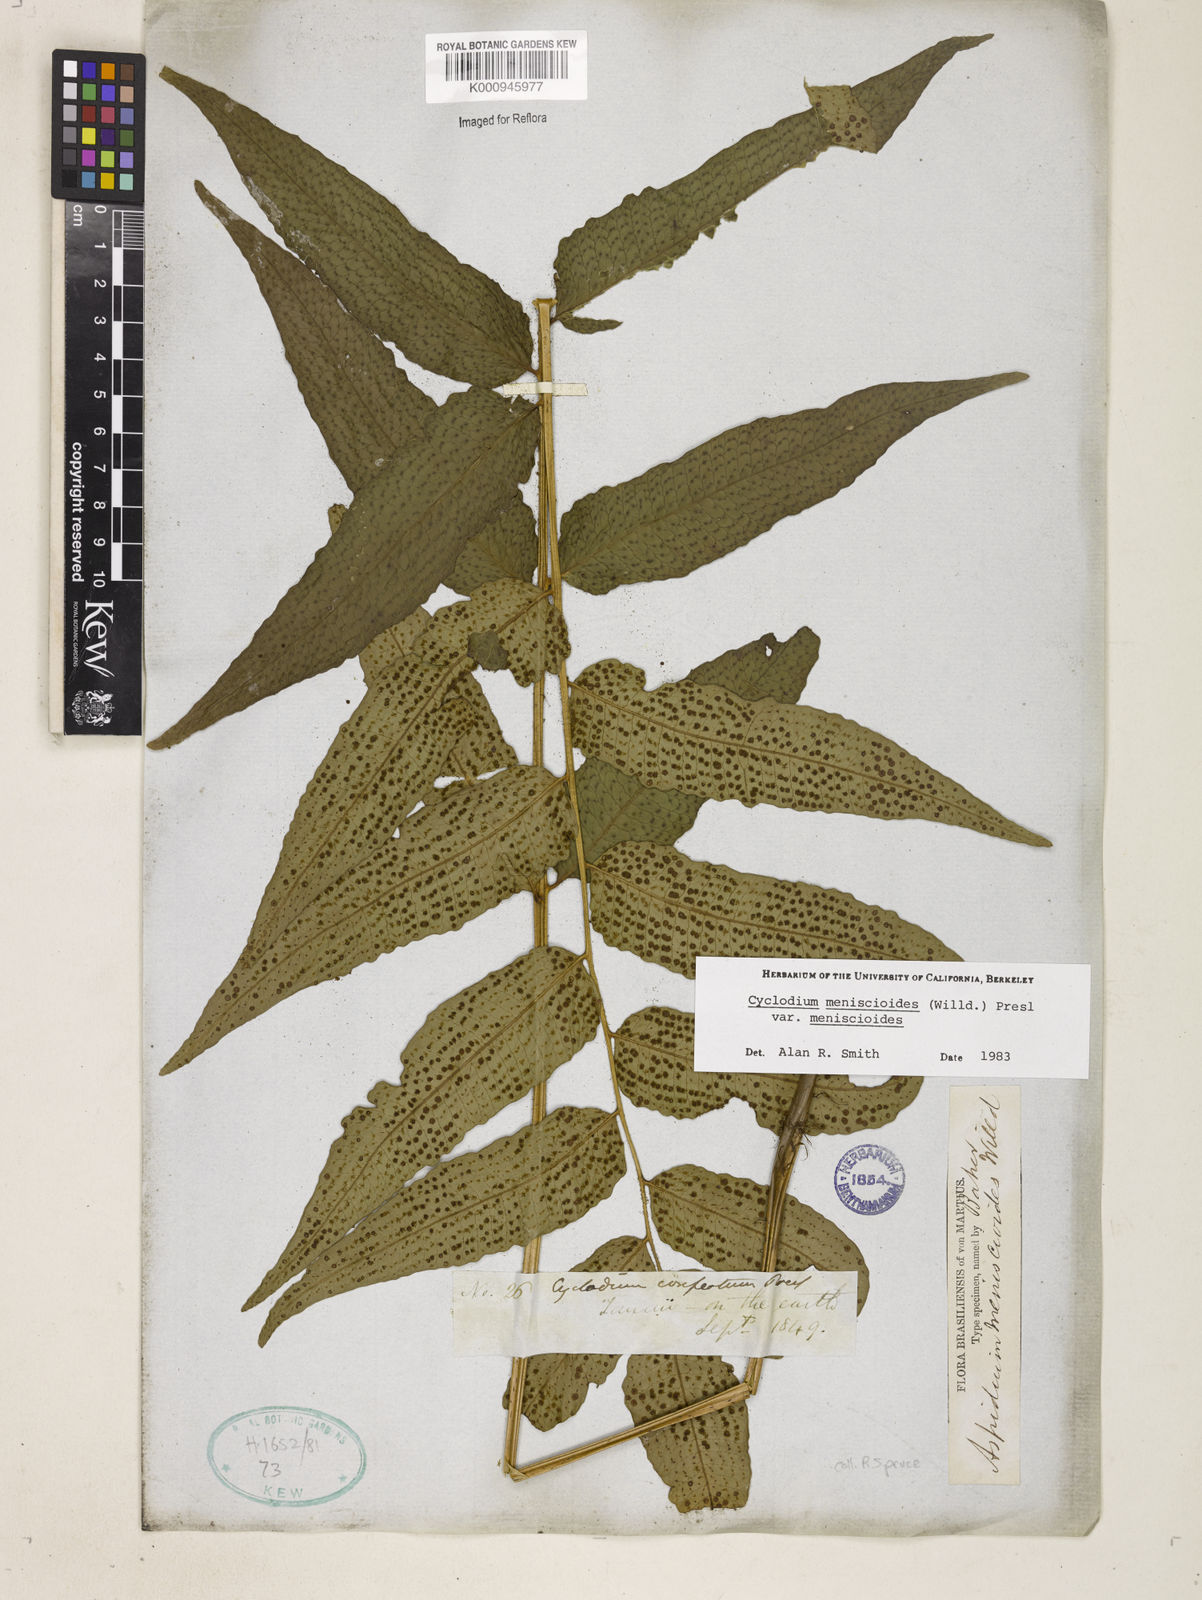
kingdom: Plantae
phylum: Tracheophyta
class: Polypodiopsida
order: Polypodiales
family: Dryopteridaceae
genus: Cyclodium
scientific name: Cyclodium meniscioides
